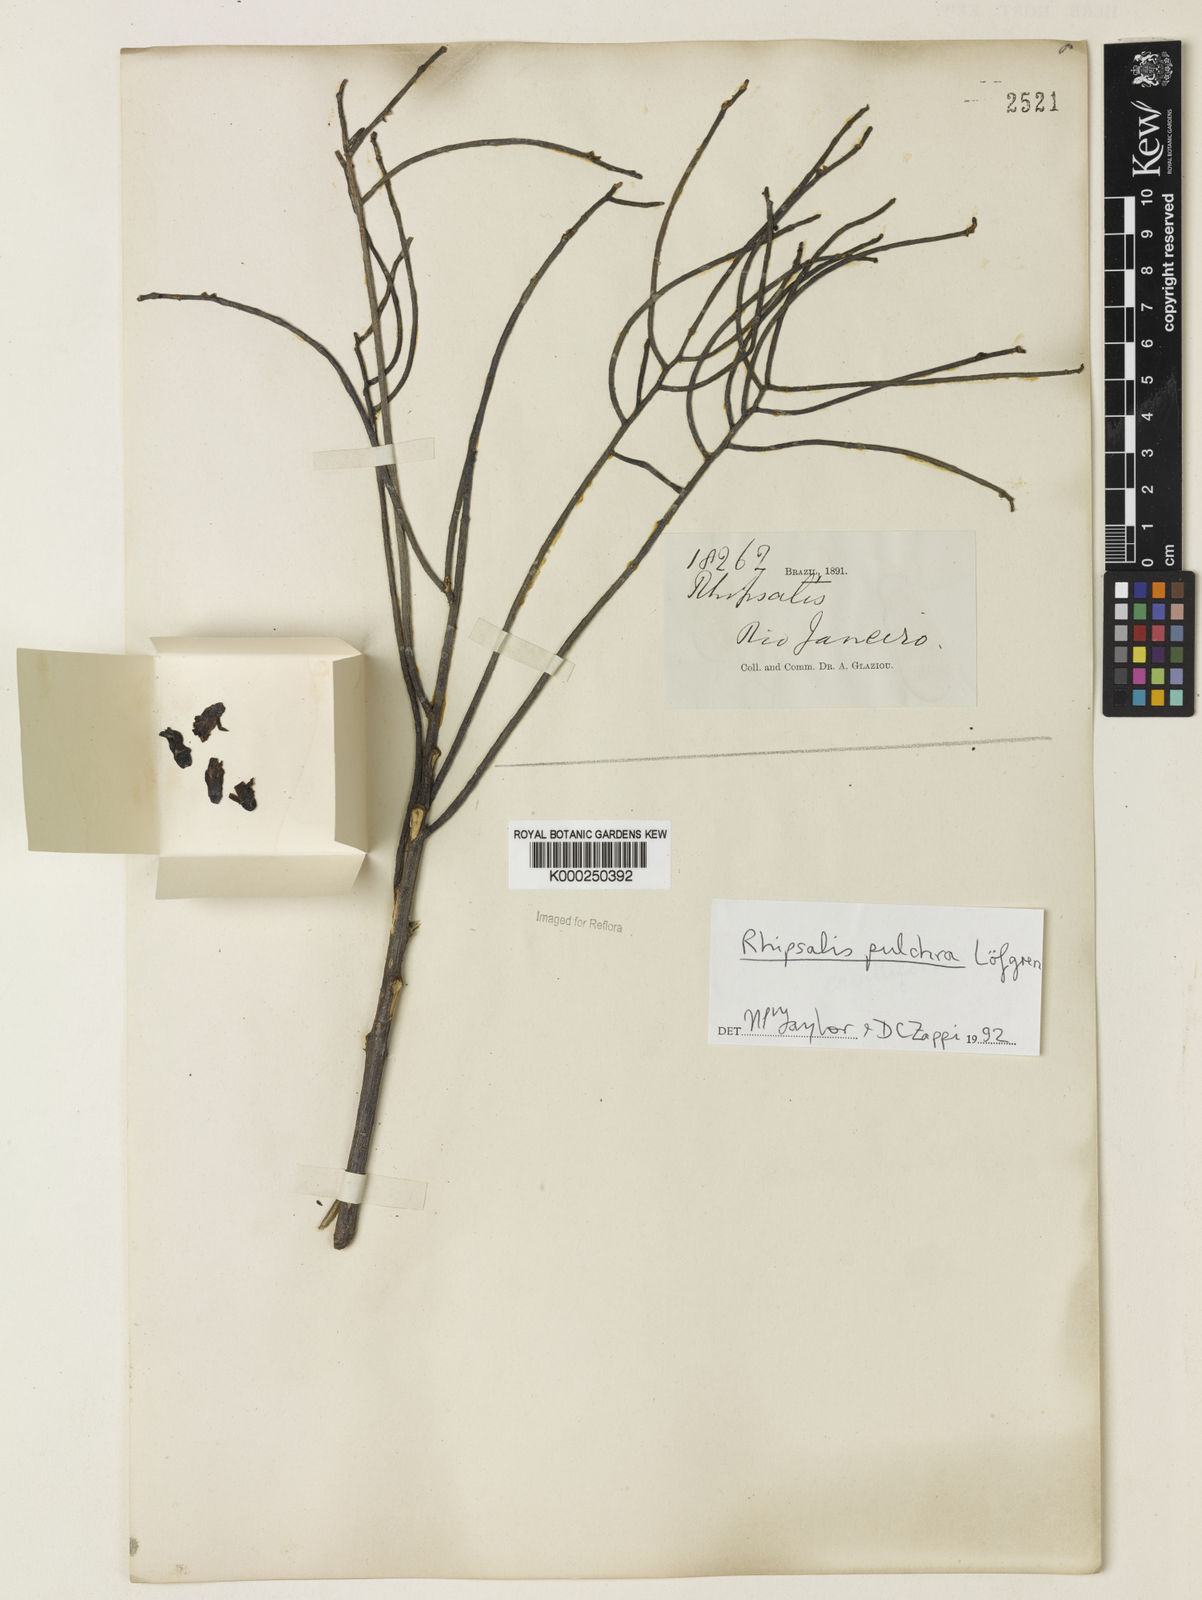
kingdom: Plantae
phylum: Tracheophyta
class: Magnoliopsida
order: Caryophyllales
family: Cactaceae
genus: Rhipsalis
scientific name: Rhipsalis
